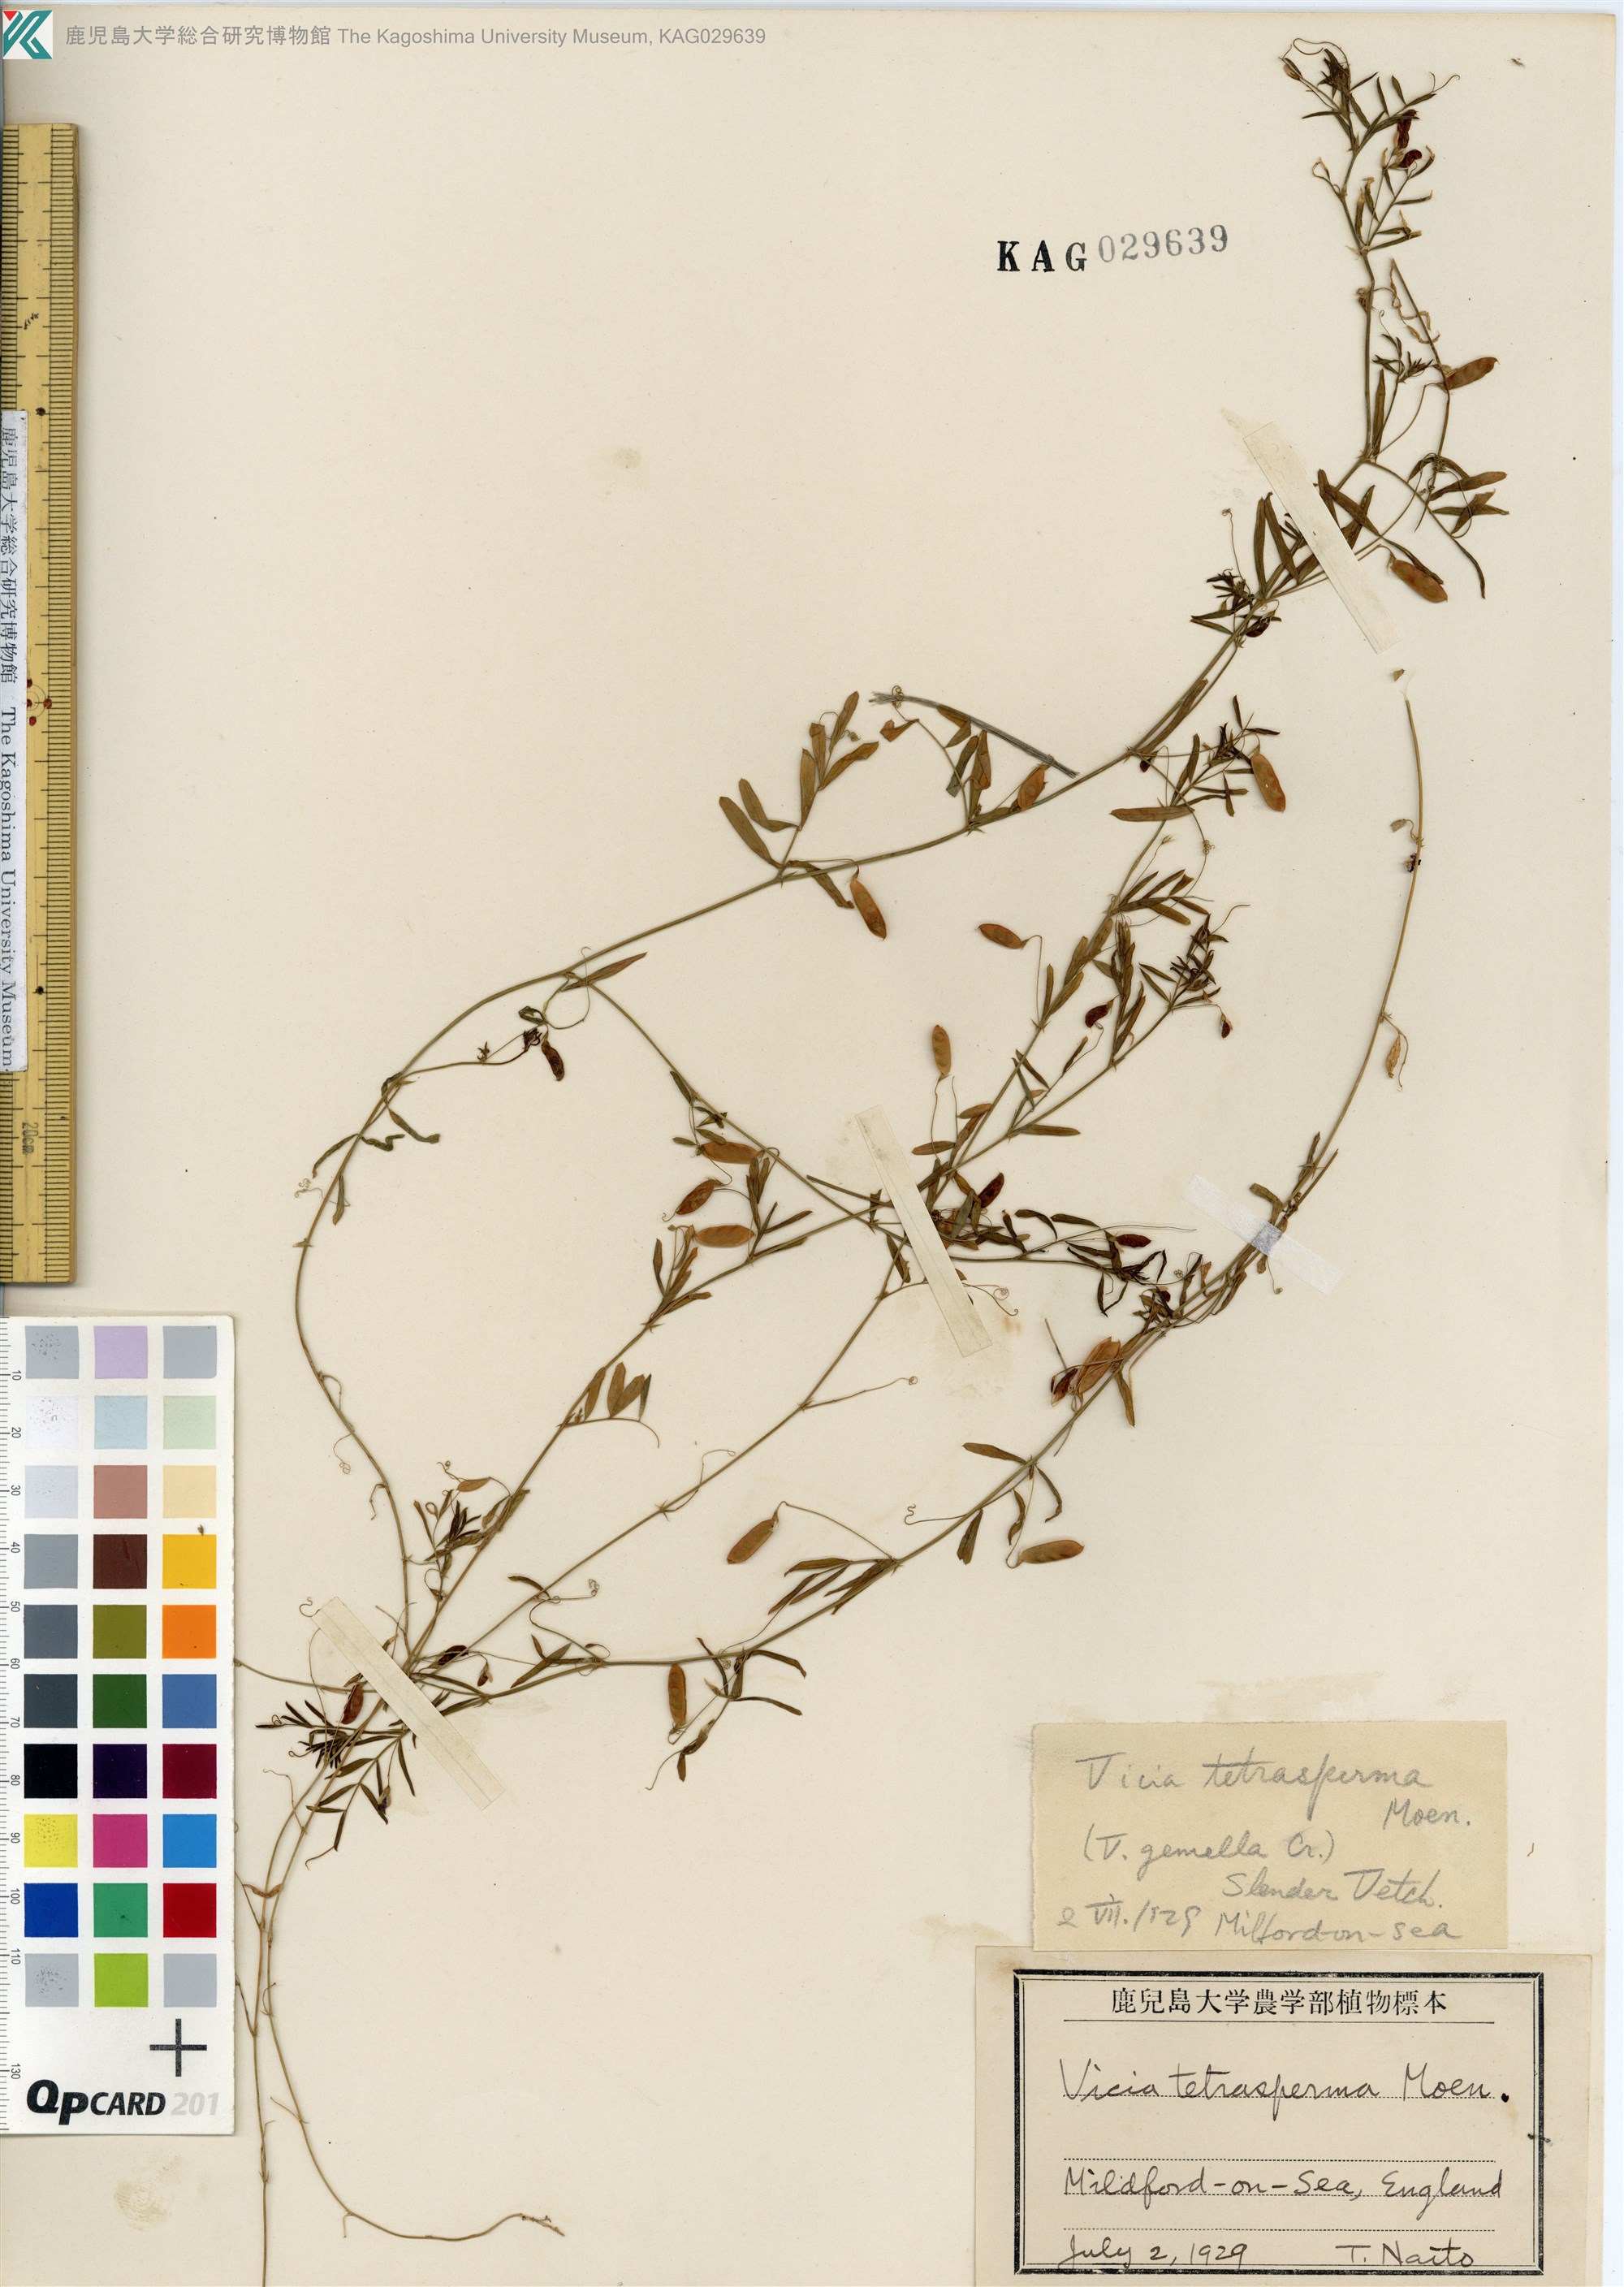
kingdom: Plantae
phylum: Tracheophyta
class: Magnoliopsida
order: Fabales
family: Fabaceae
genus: Vicia
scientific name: Vicia tetrasperma
